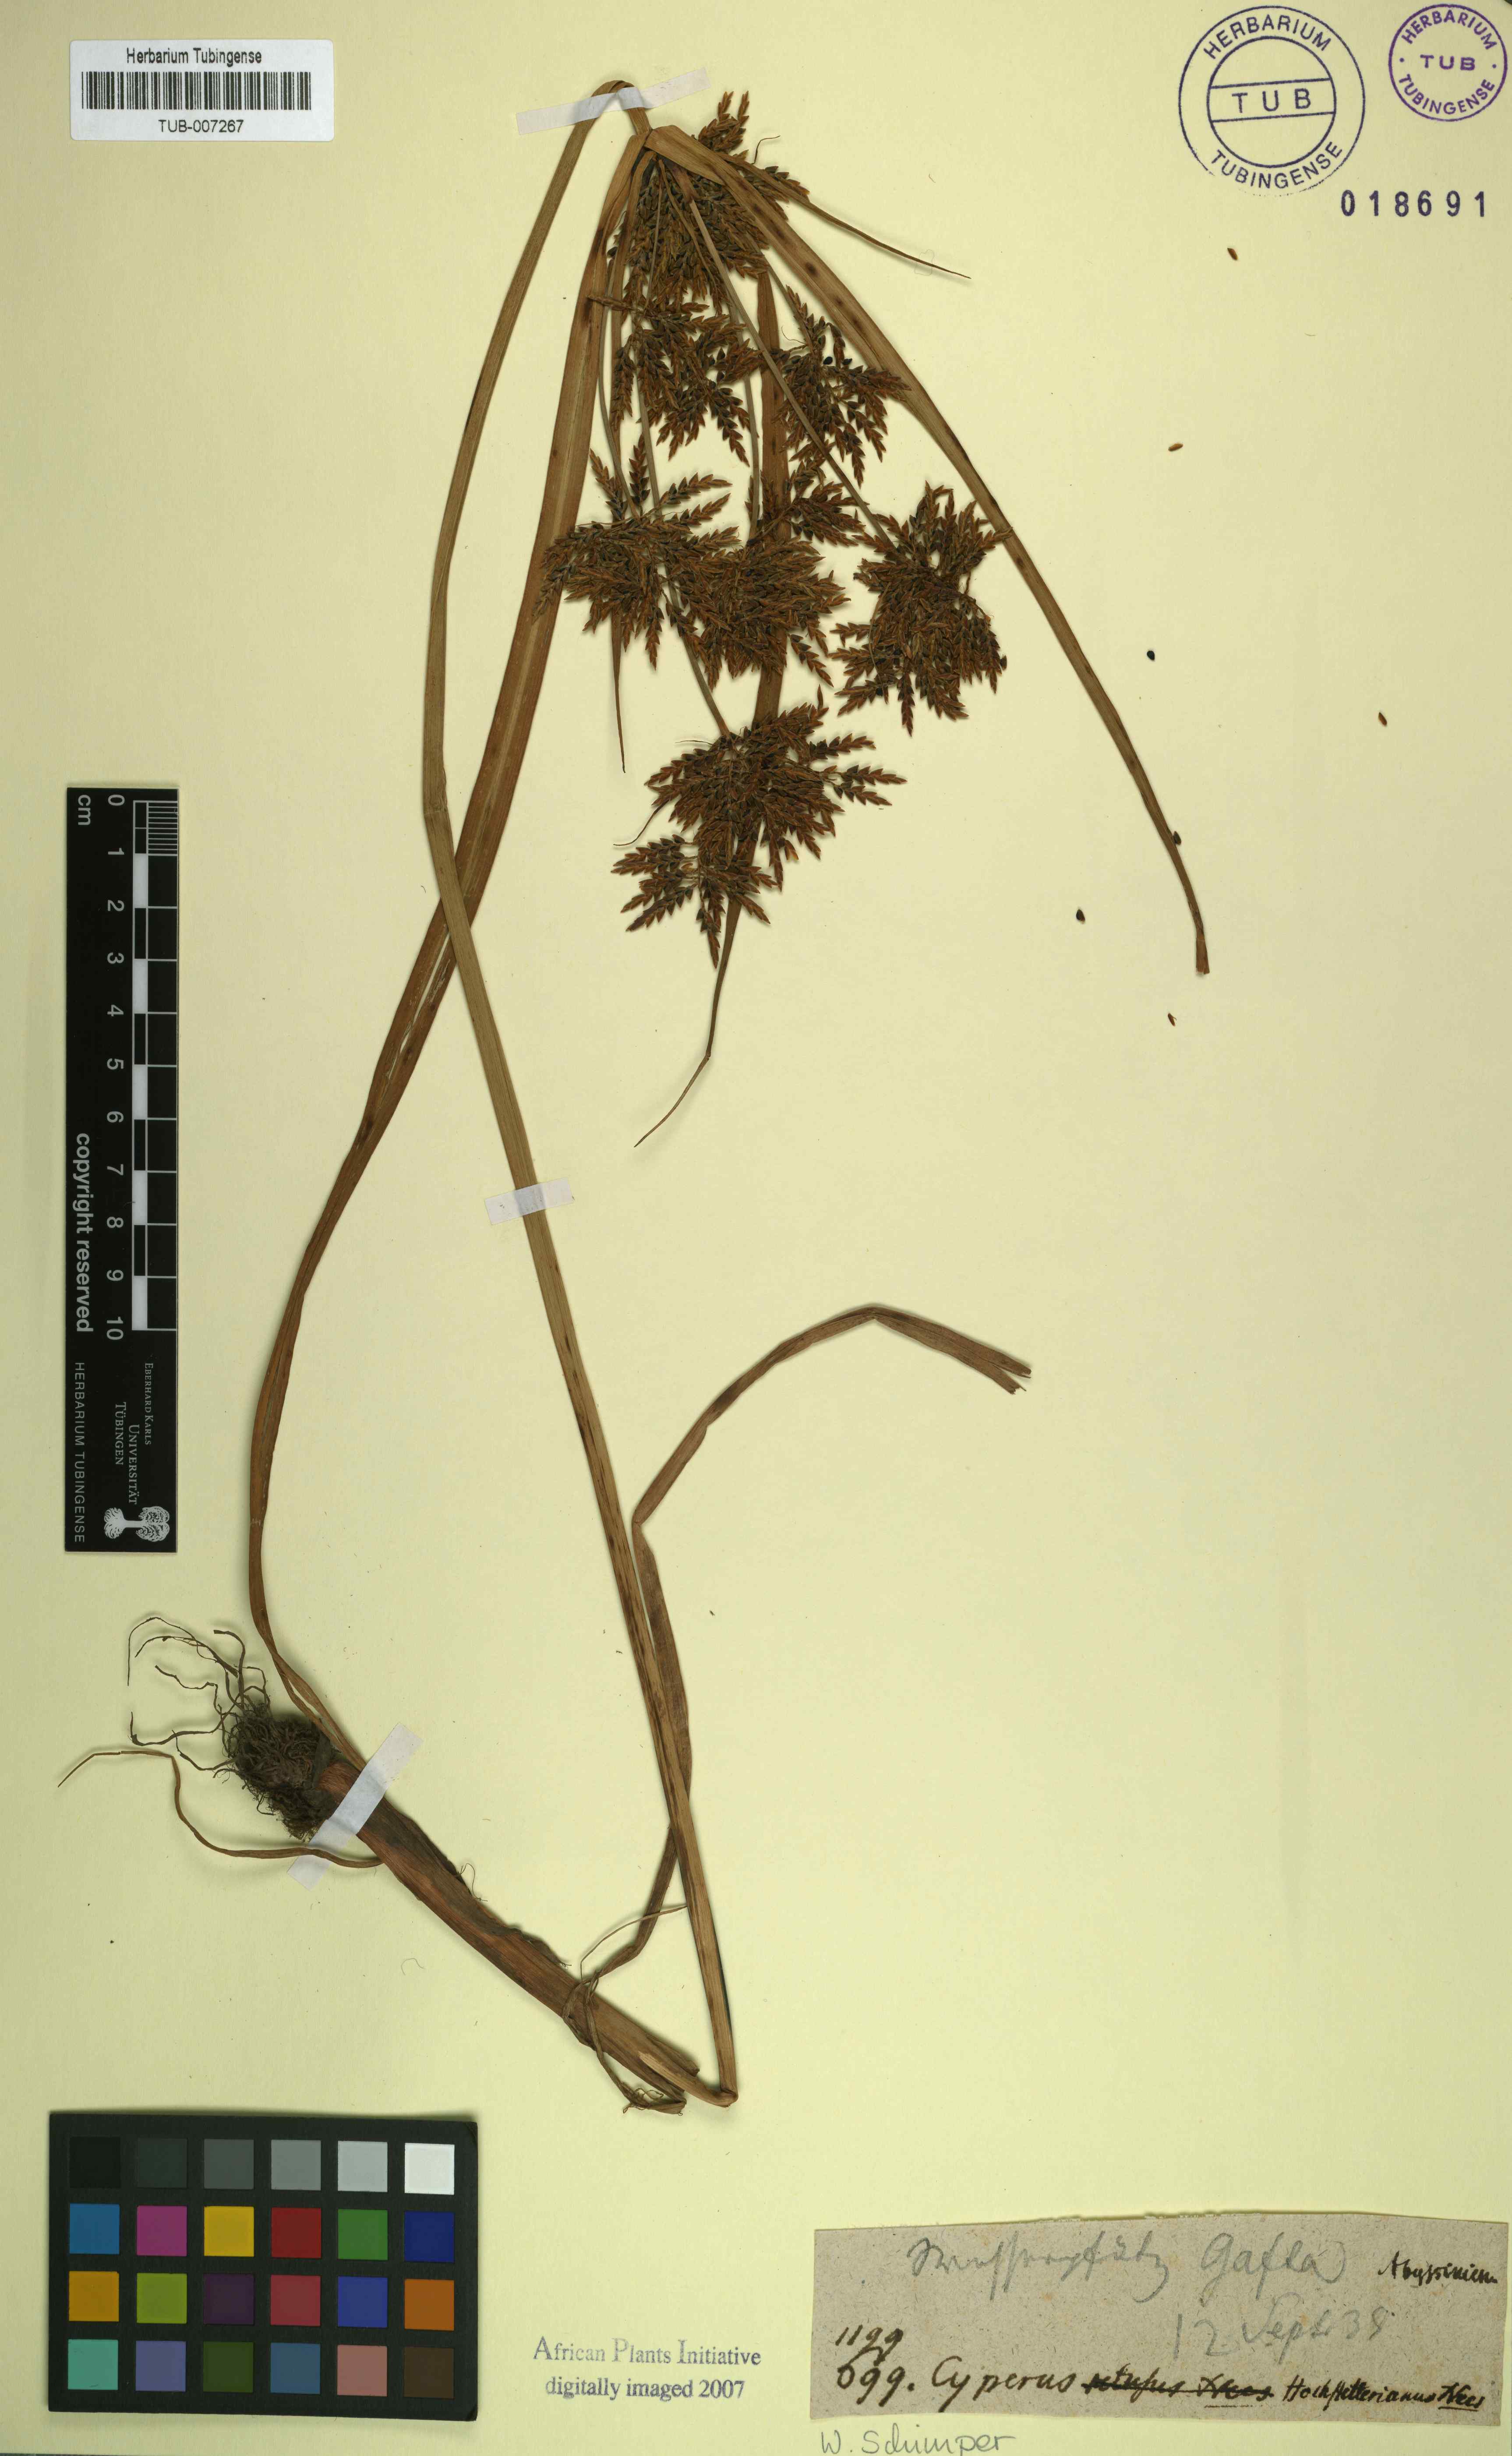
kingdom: Plantae
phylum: Tracheophyta
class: Liliopsida
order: Poales
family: Cyperaceae
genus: Cyperus
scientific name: Cyperus macrostachyos
